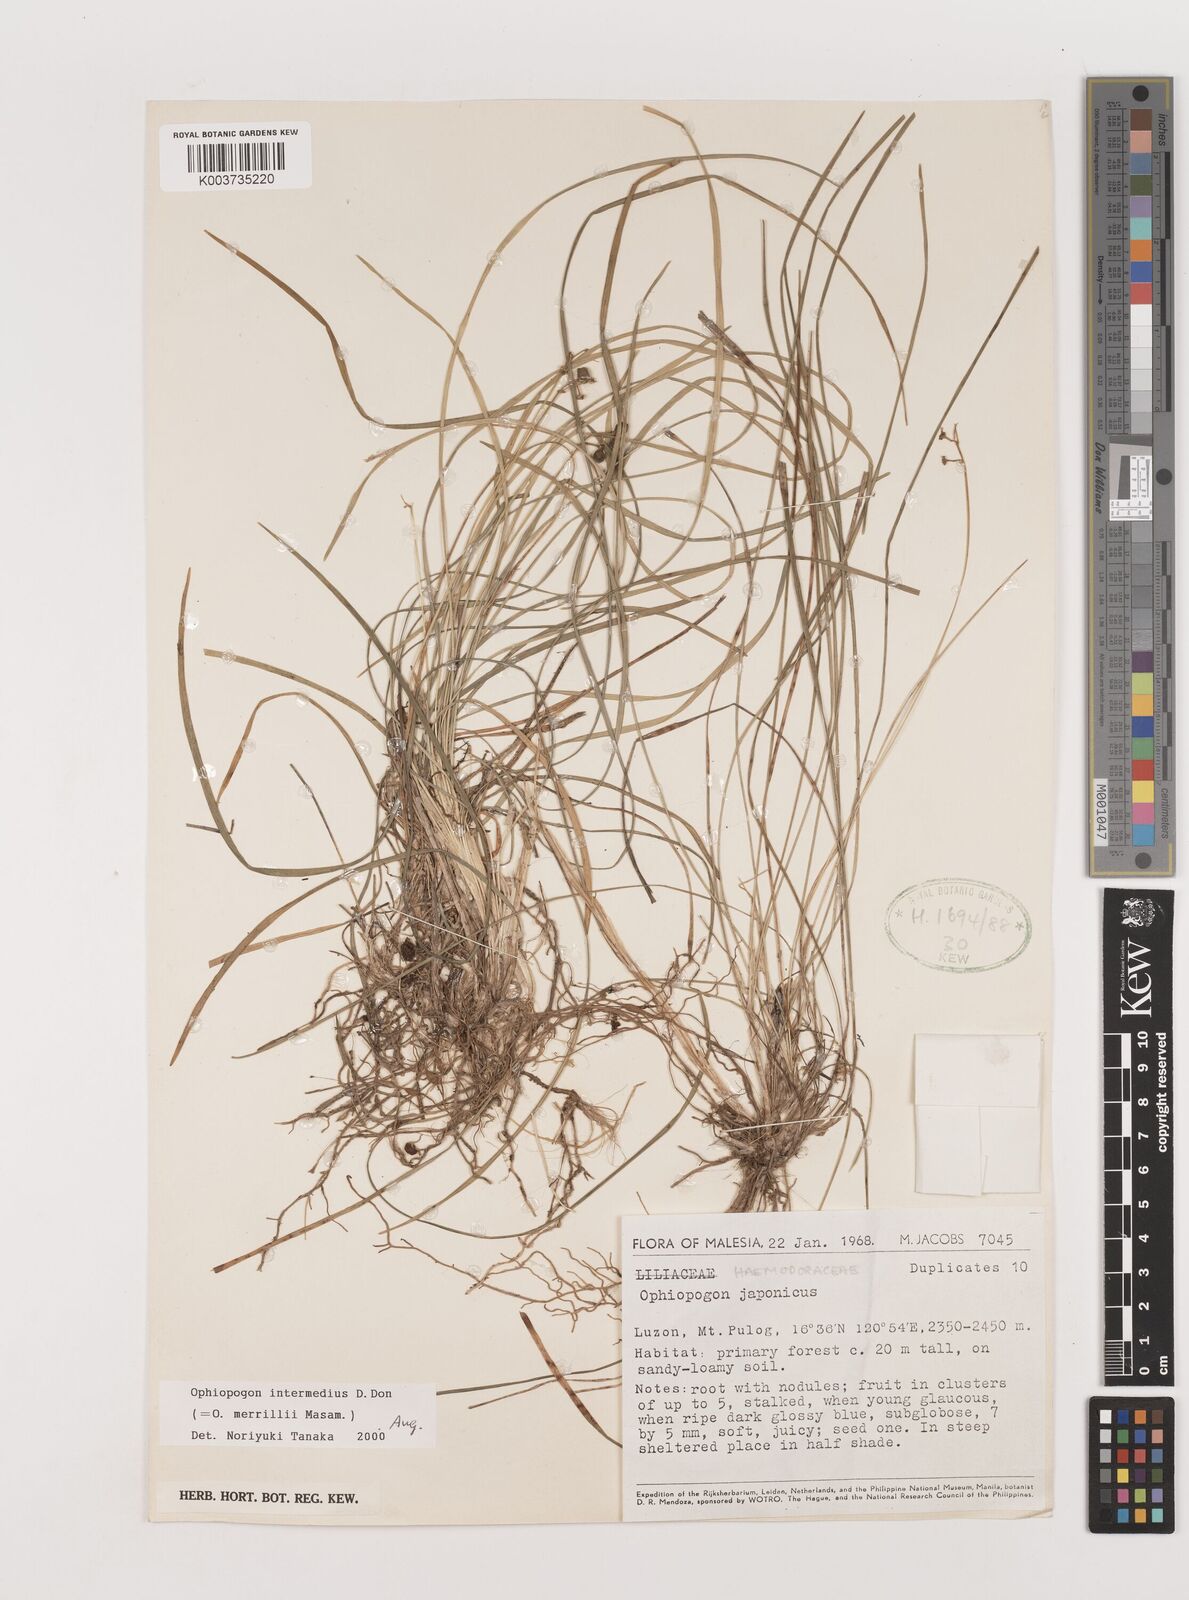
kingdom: Plantae
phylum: Tracheophyta
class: Liliopsida
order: Asparagales
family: Asparagaceae
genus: Ophiopogon
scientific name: Ophiopogon intermedius
